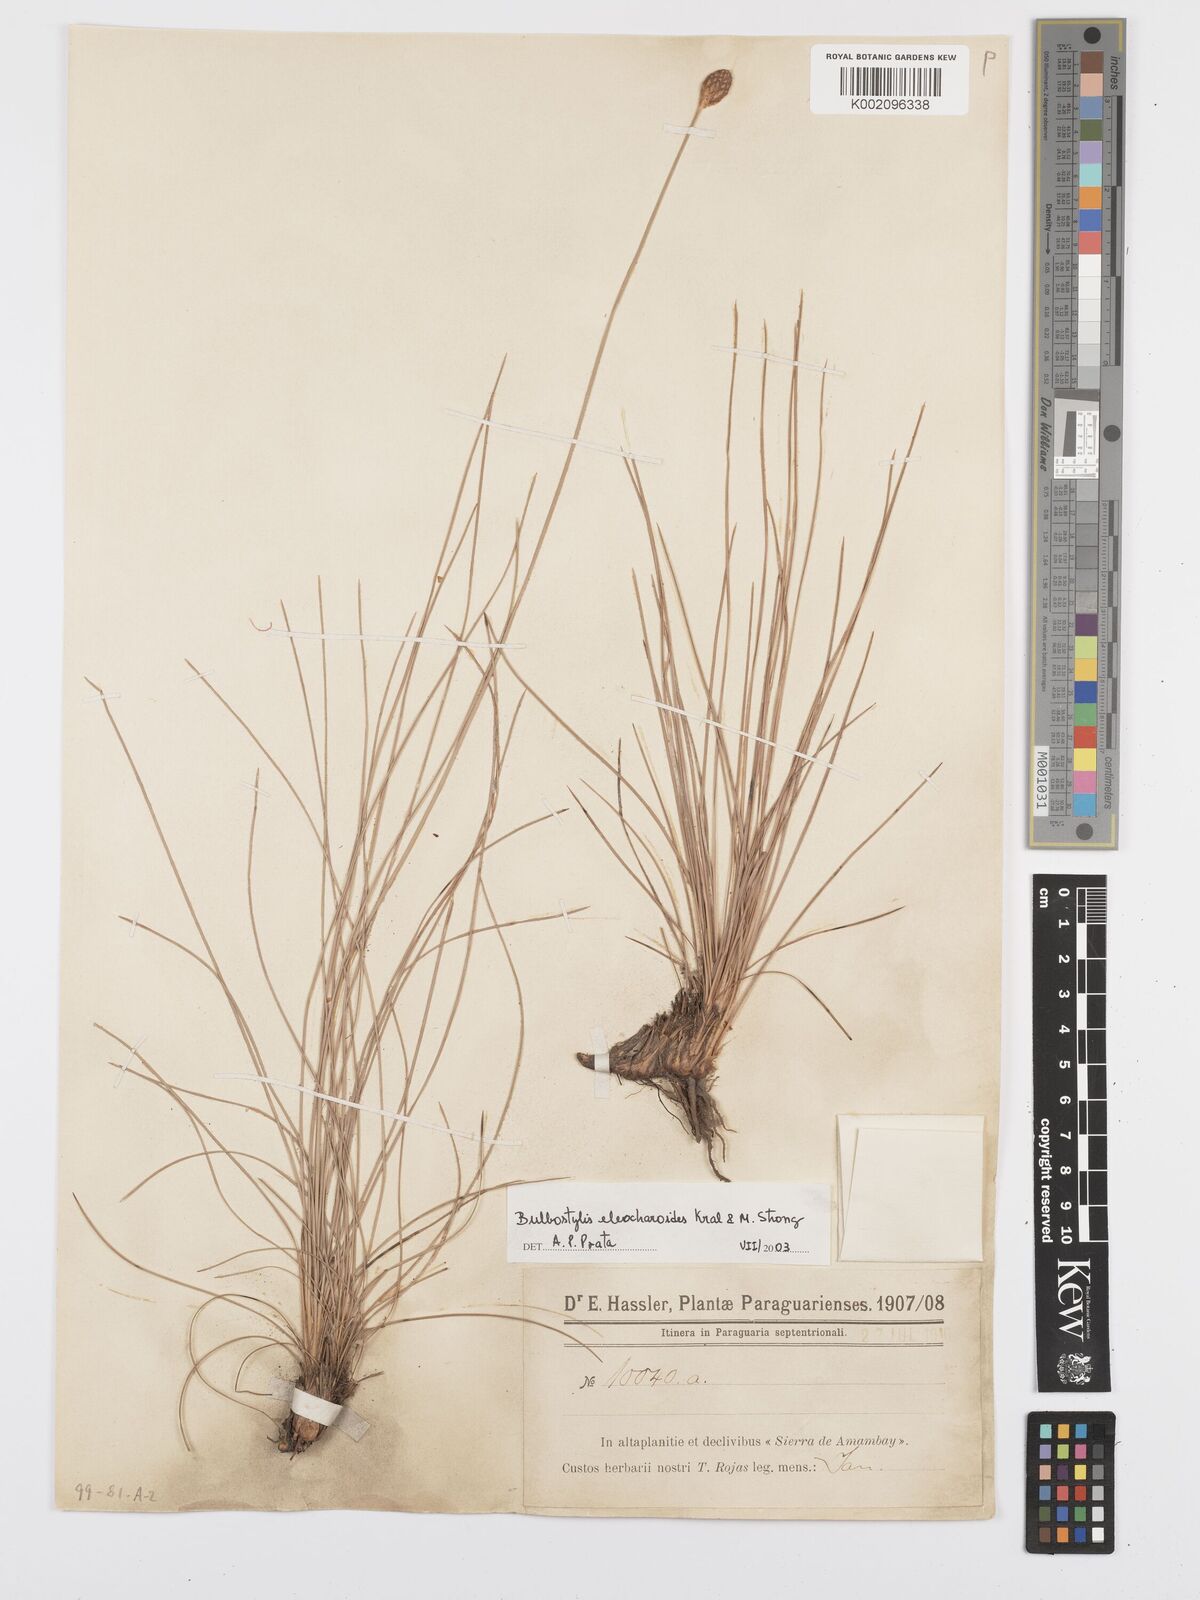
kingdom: Plantae
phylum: Tracheophyta
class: Liliopsida
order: Poales
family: Cyperaceae
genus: Bulbostylis
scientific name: Bulbostylis eleocharoides
